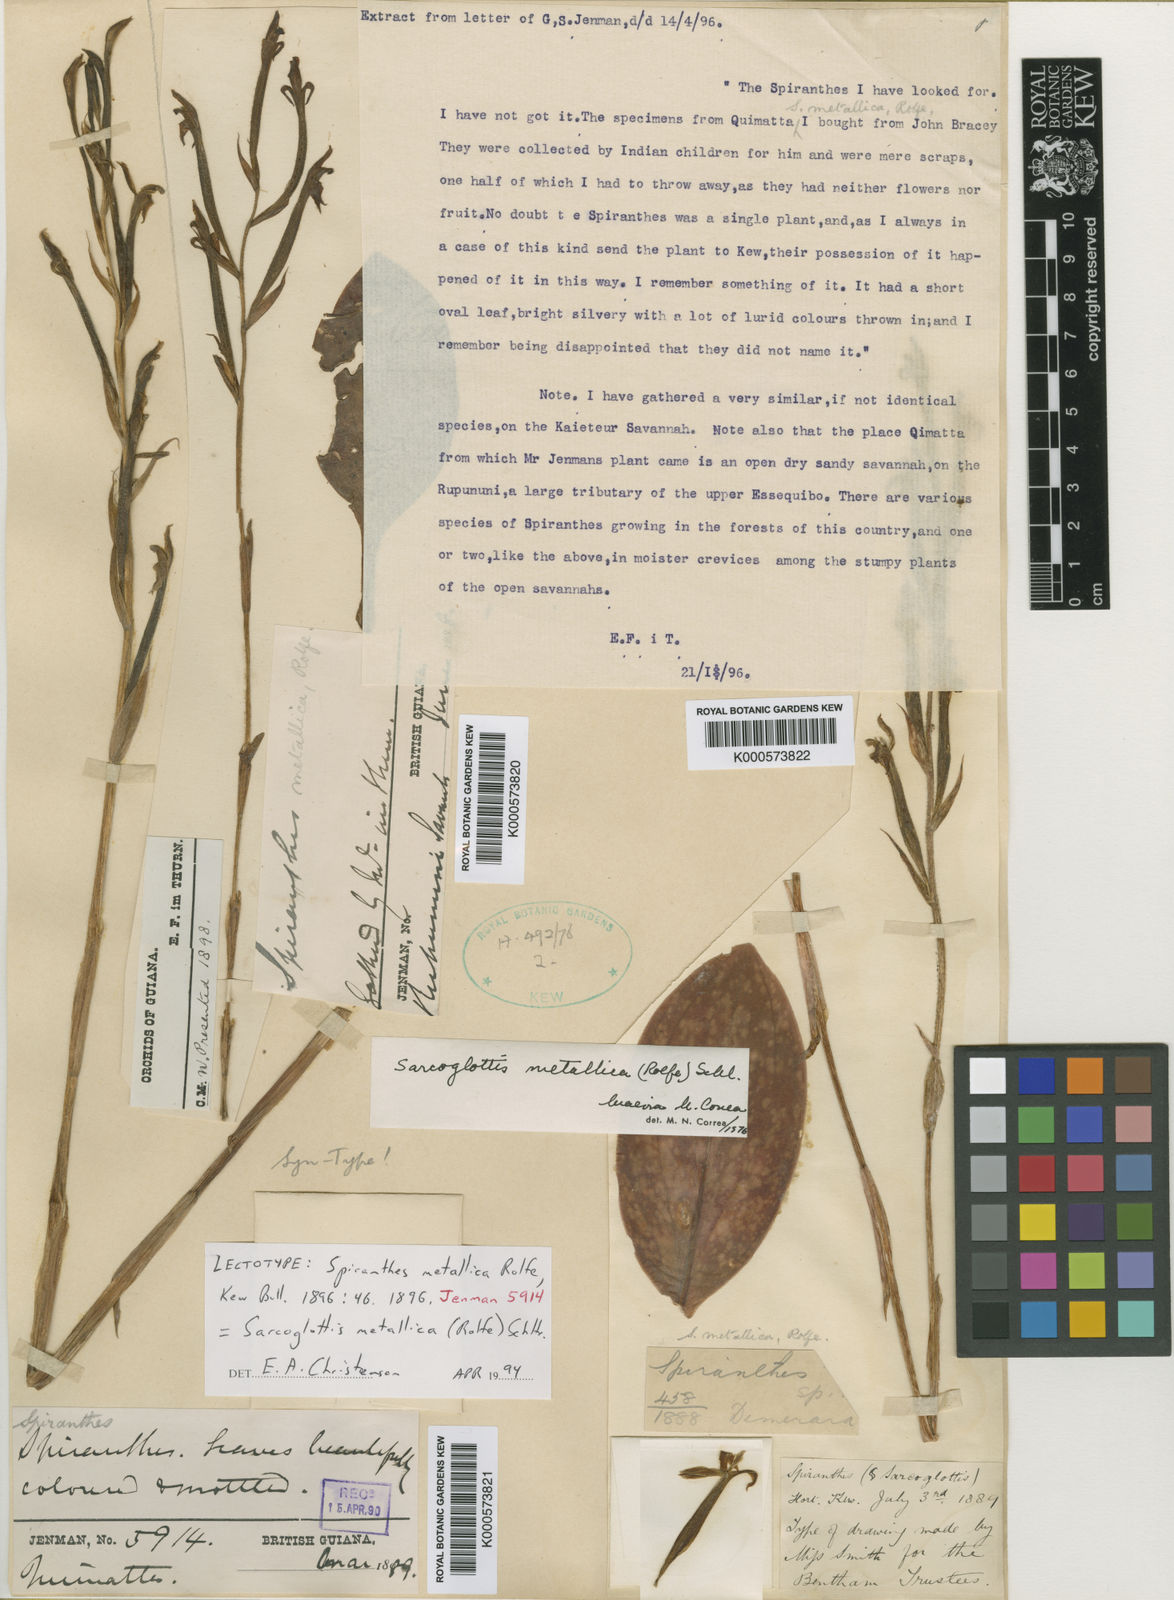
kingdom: Plantae
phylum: Tracheophyta
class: Liliopsida
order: Asparagales
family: Orchidaceae
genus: Sarcoglottis
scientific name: Sarcoglottis metallica
